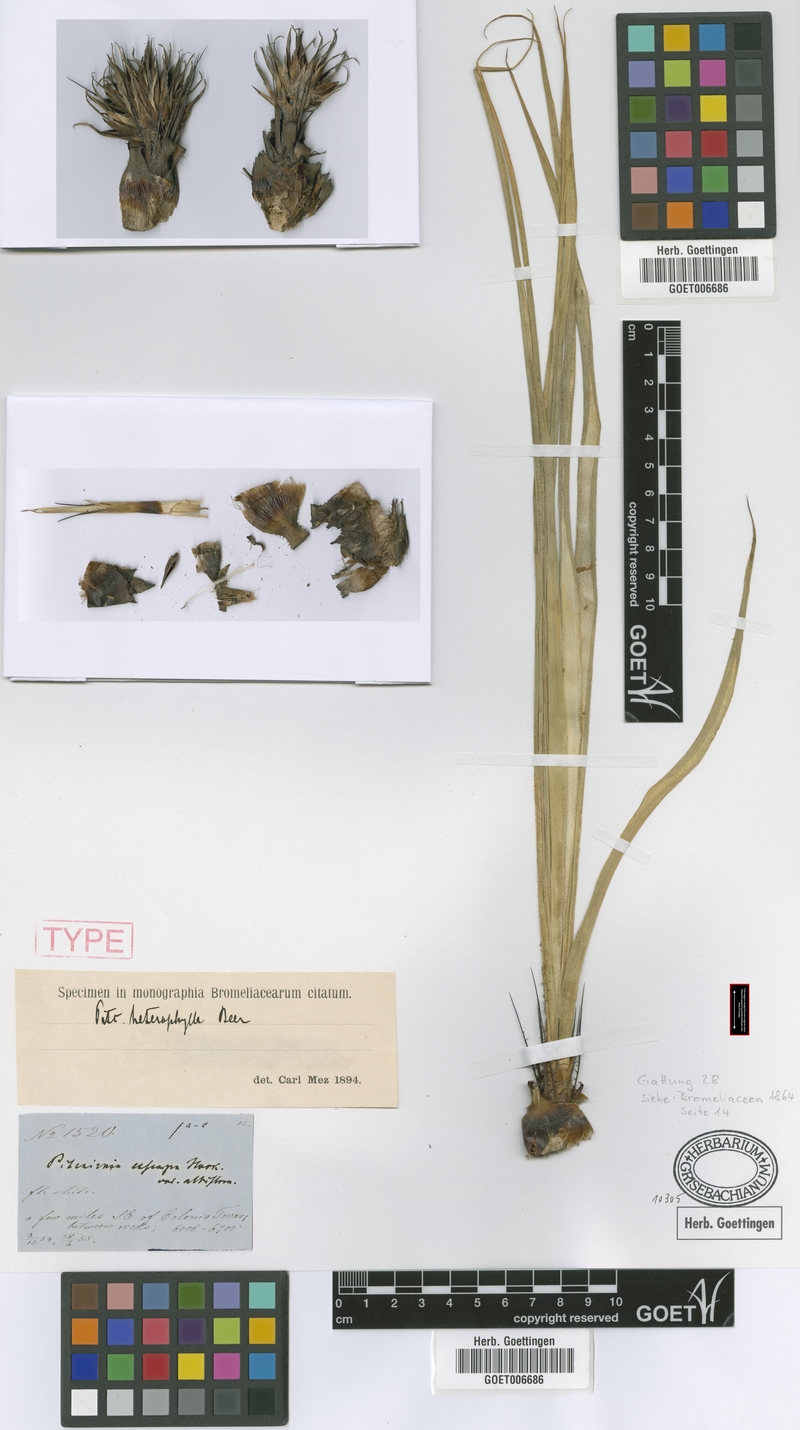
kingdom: Plantae
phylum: Tracheophyta
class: Liliopsida
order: Poales
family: Bromeliaceae
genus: Pitcairnia
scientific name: Pitcairnia heterophylla
